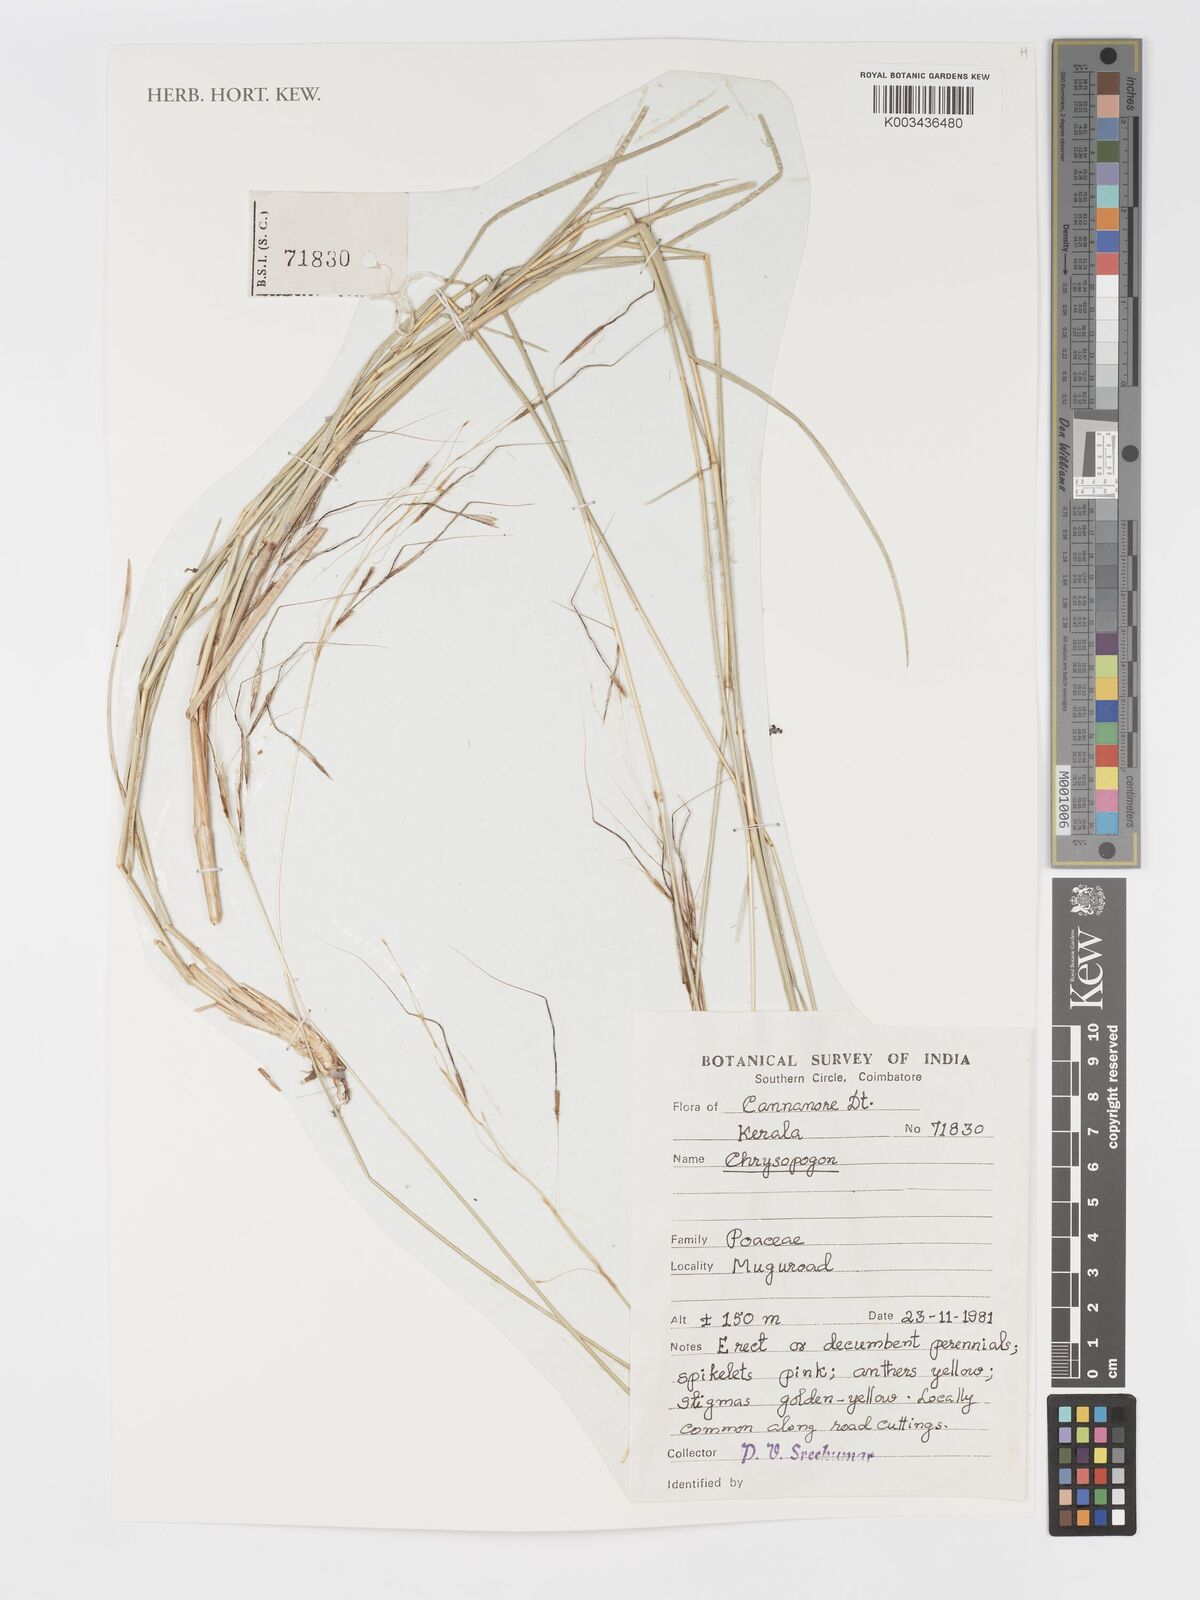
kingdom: Plantae
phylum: Tracheophyta
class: Liliopsida
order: Poales
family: Poaceae
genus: Chrysopogon
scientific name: Chrysopogon
